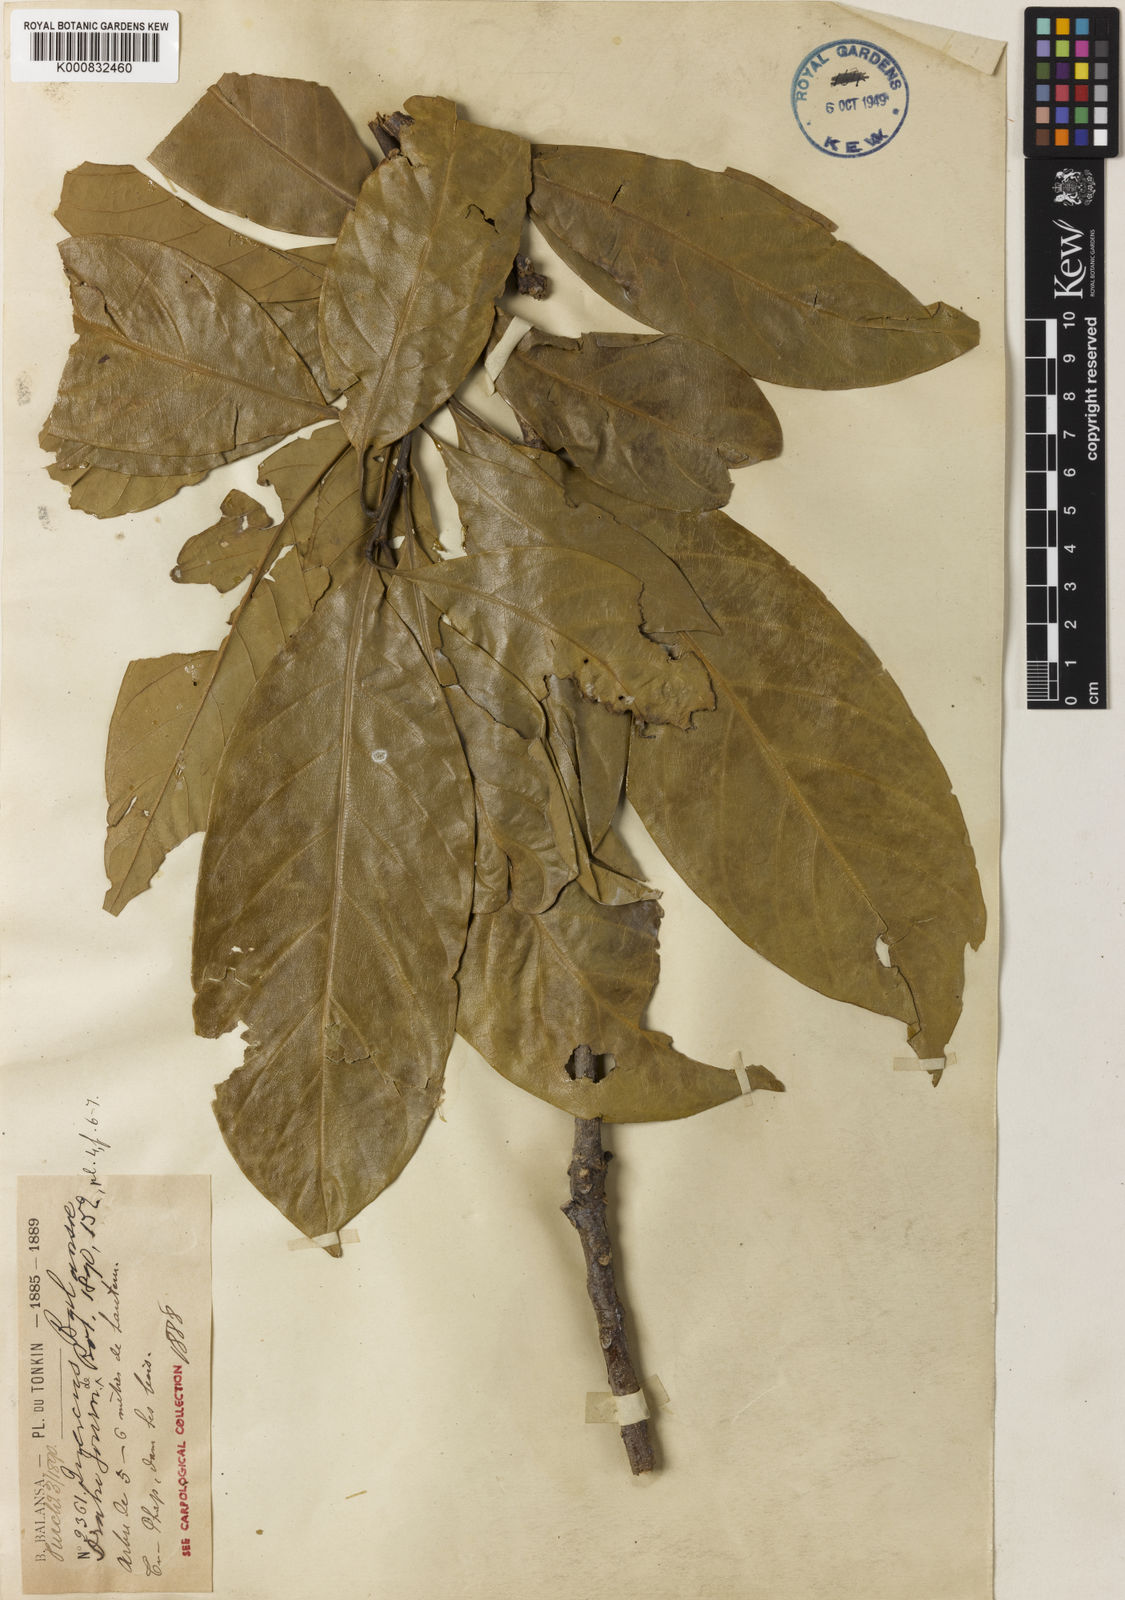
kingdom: Plantae
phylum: Tracheophyta
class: Magnoliopsida
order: Fagales
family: Fagaceae
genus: Lithocarpus
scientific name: Lithocarpus tephrocarpus
